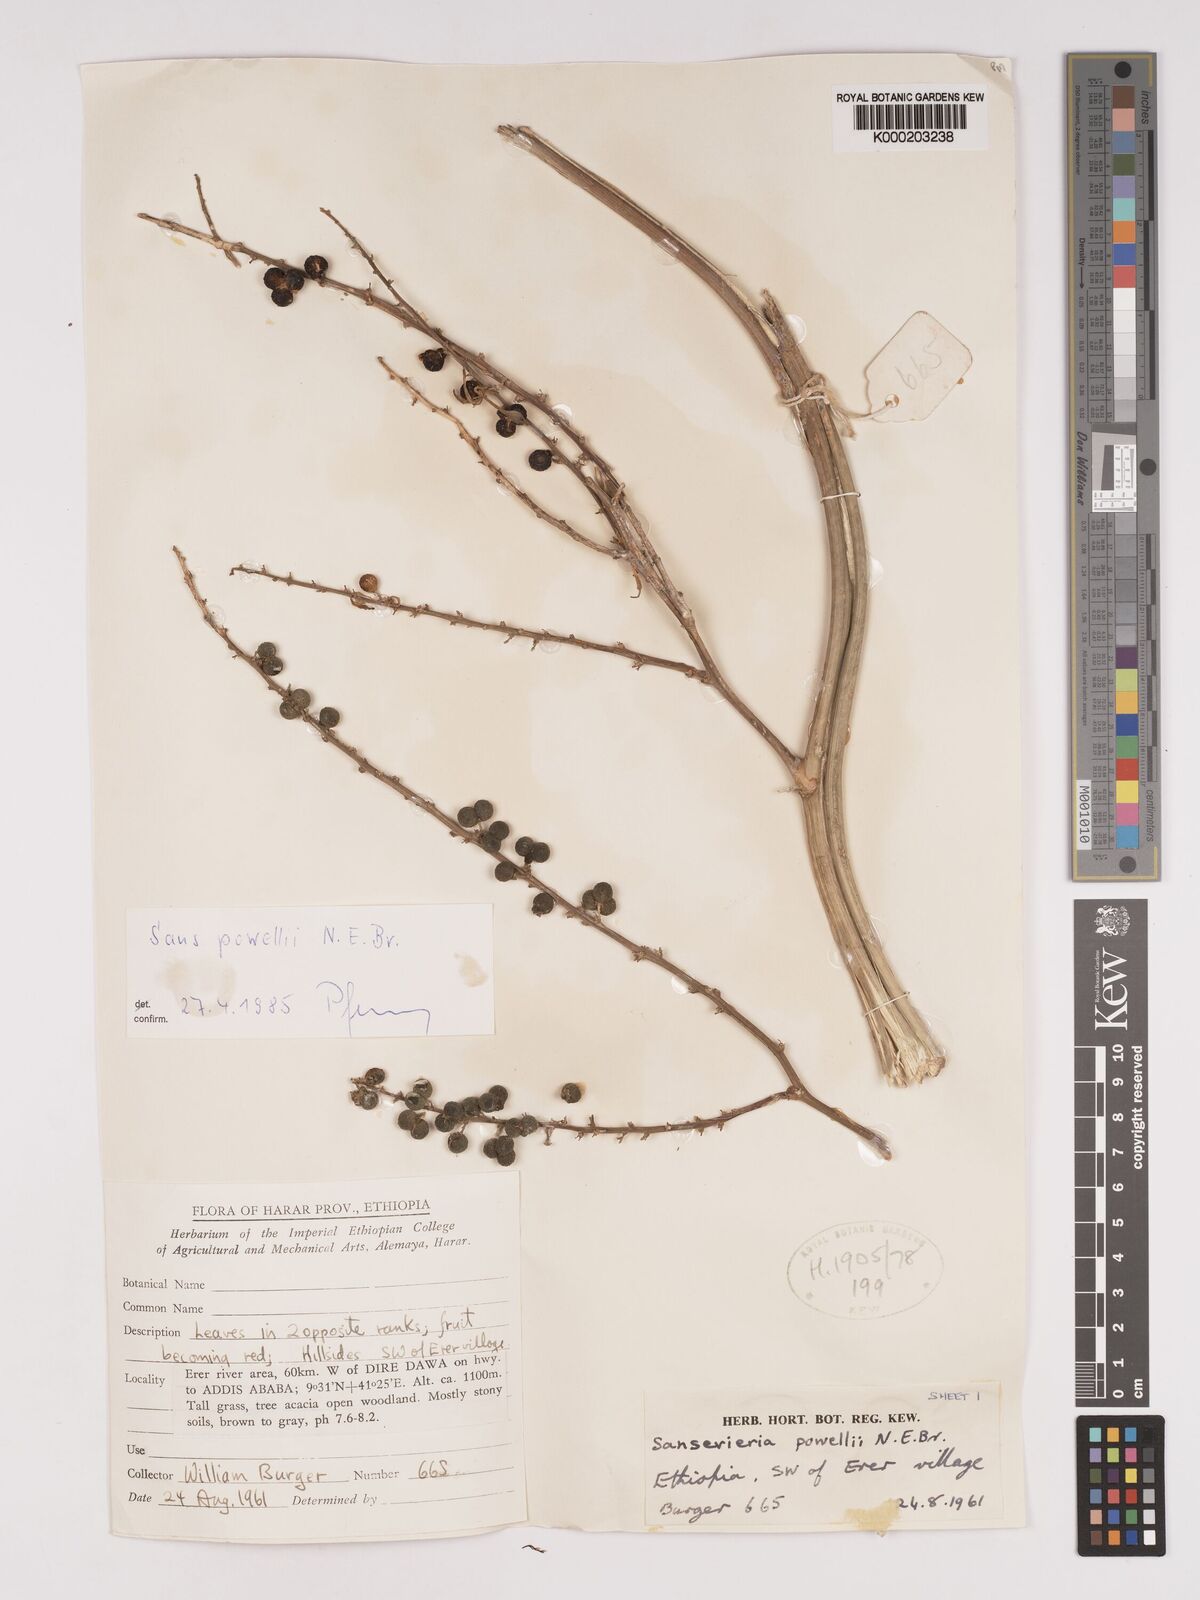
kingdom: Plantae
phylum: Tracheophyta
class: Liliopsida
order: Asparagales
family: Asparagaceae
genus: Dracaena
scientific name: Dracaena powellii
